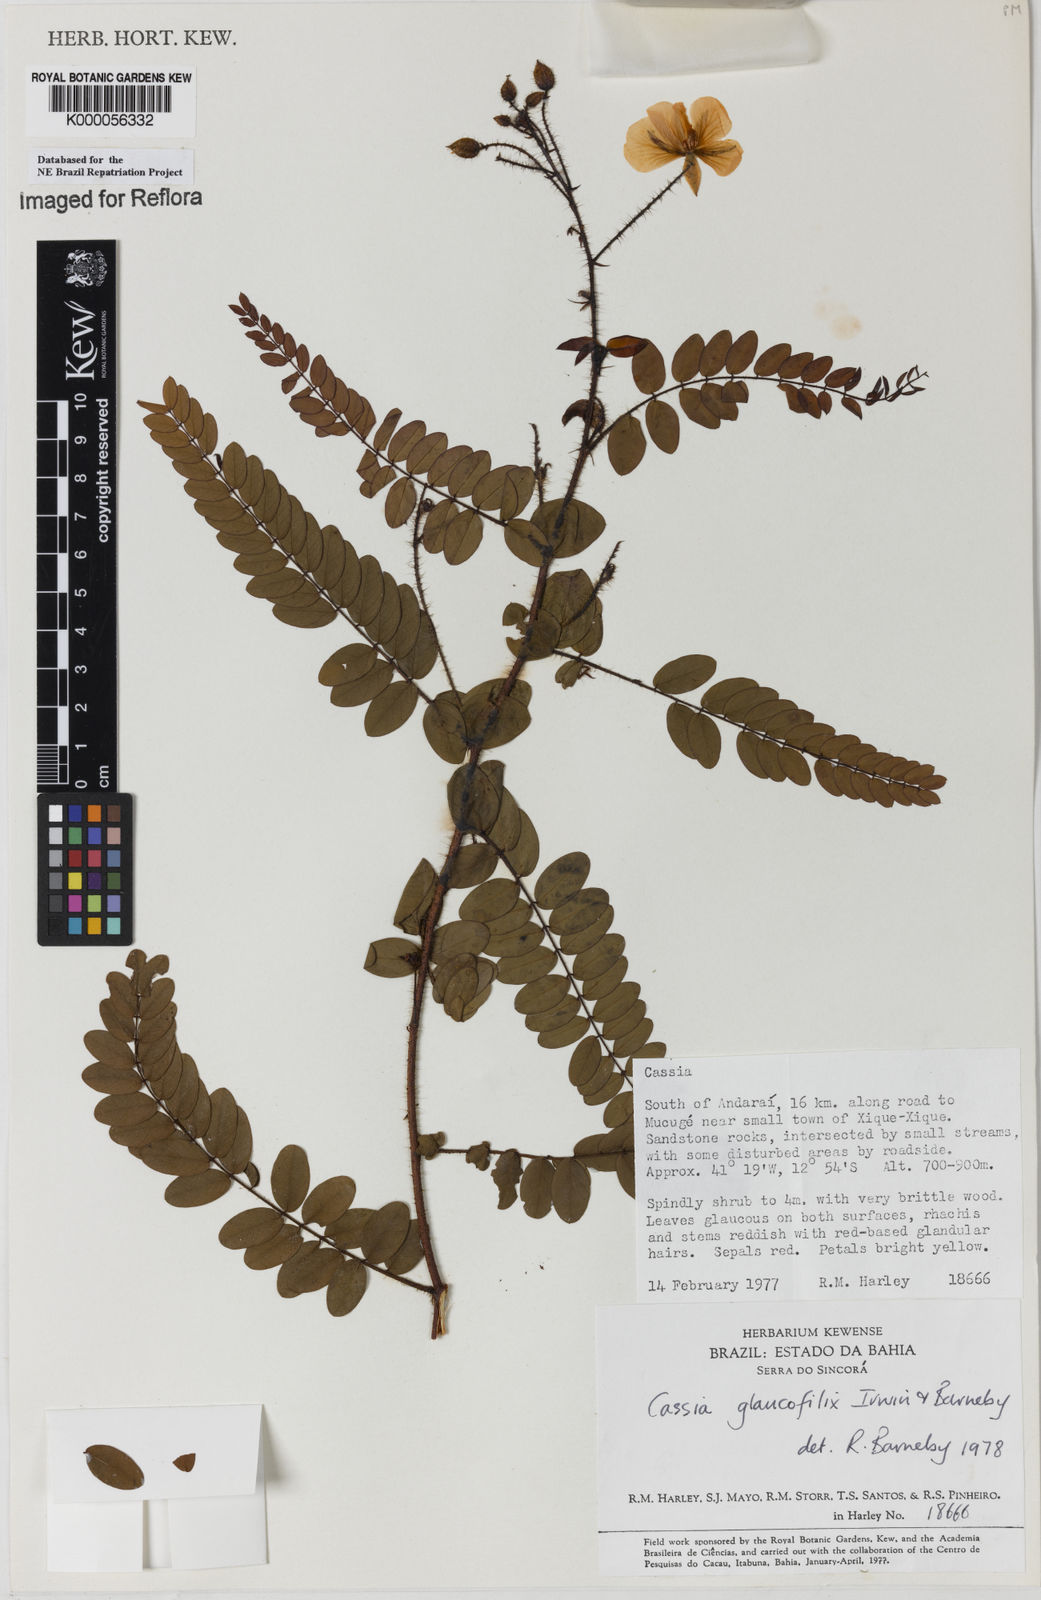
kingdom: Plantae
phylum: Tracheophyta
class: Magnoliopsida
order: Fabales
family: Fabaceae
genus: Chamaecrista
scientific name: Chamaecrista glaucofilix
